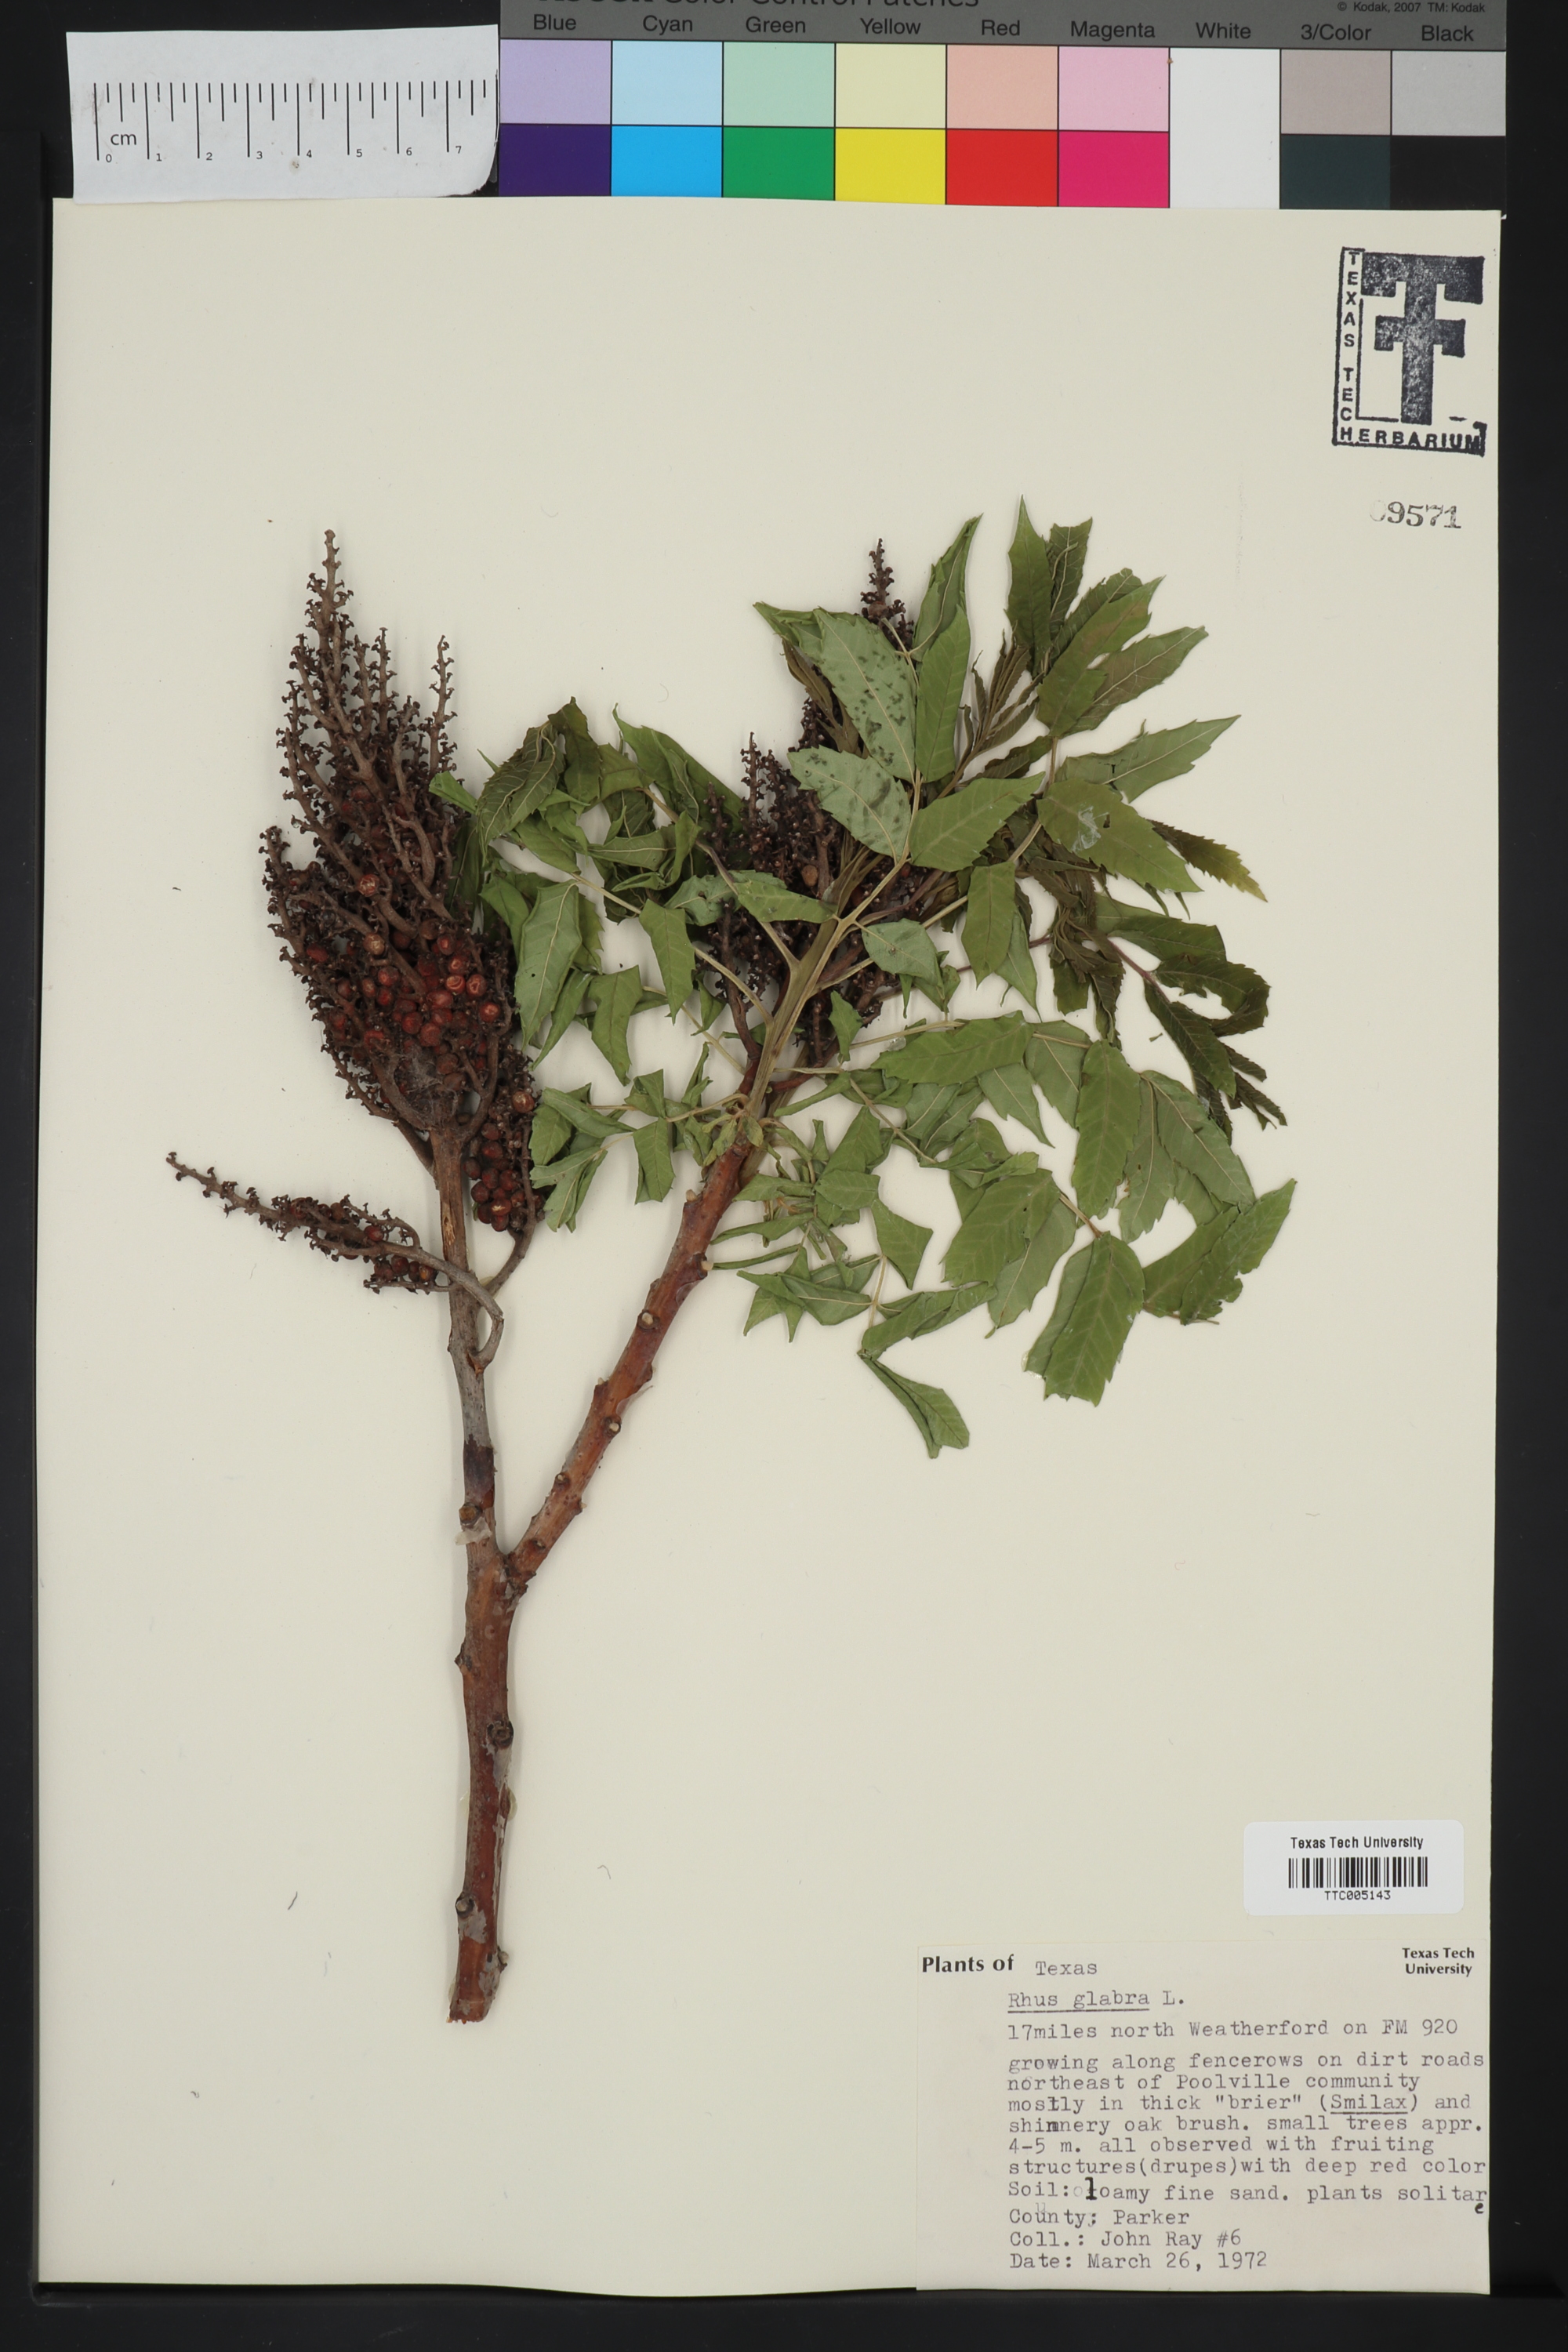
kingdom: Plantae
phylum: Tracheophyta
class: Magnoliopsida
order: Sapindales
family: Anacardiaceae
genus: Rhus
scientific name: Rhus glabra
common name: Scarlet sumac
